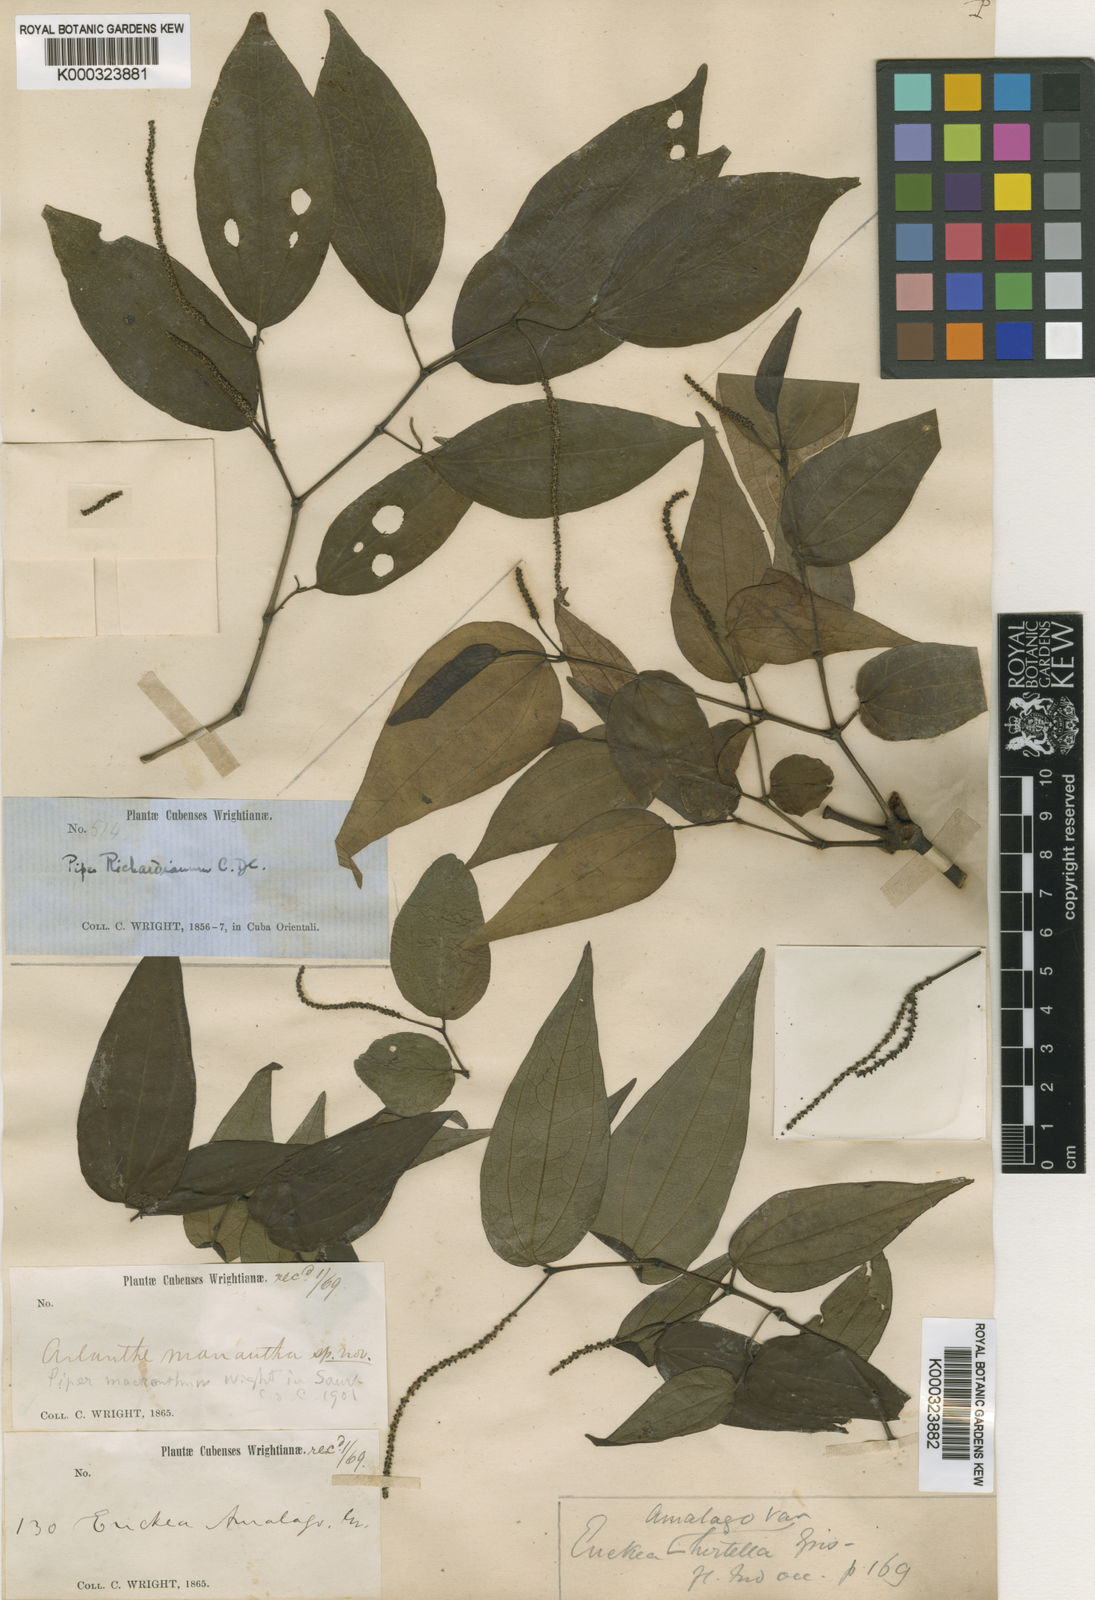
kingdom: Plantae
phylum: Tracheophyta
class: Magnoliopsida
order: Piperales
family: Piperaceae
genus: Piper
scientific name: Piper amalago
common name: Pepper-elder
